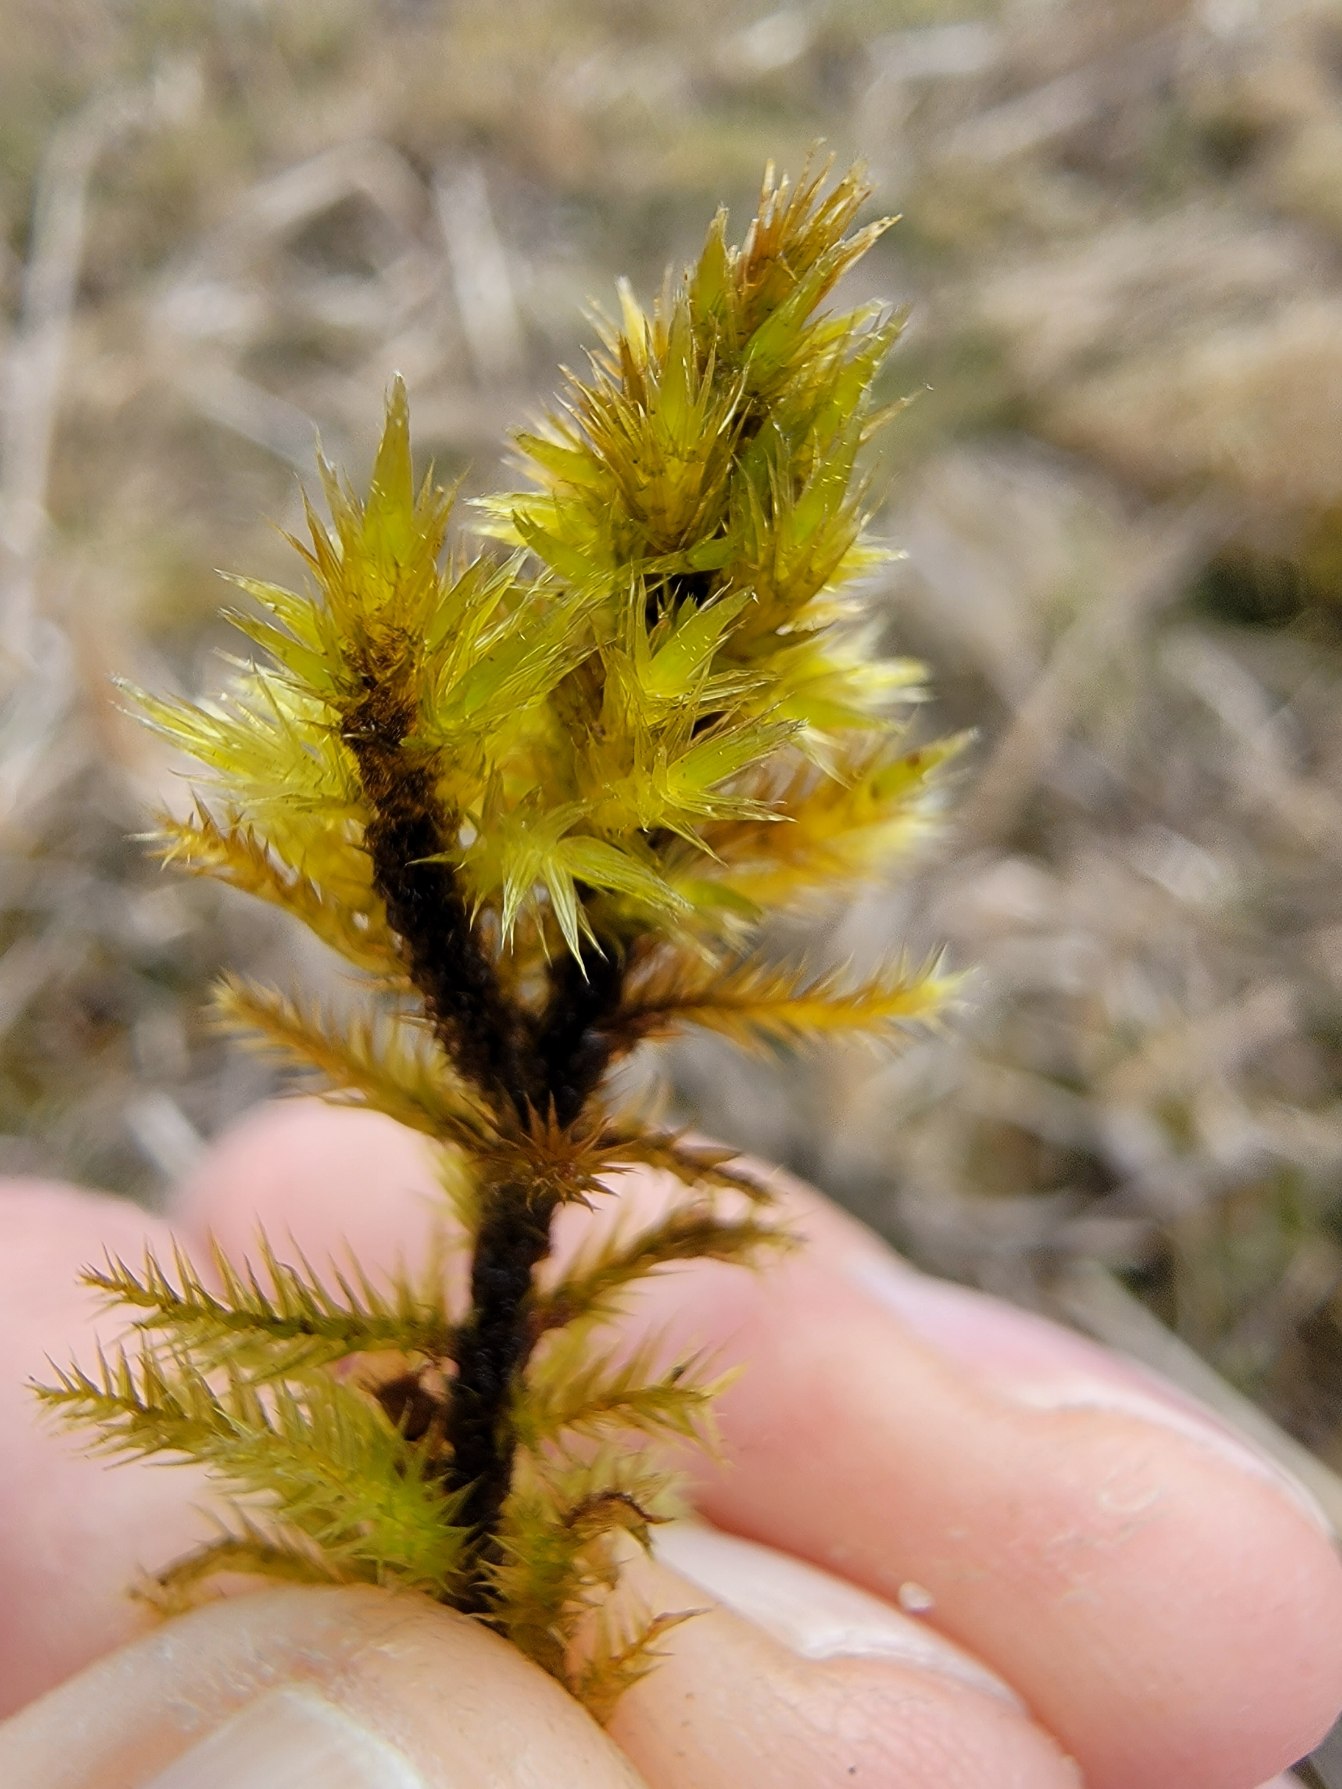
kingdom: Plantae
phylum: Bryophyta
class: Bryopsida
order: Hypnales
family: Amblystegiaceae
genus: Tomentypnum
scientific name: Tomentypnum nitens
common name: Glinsende kærmos
